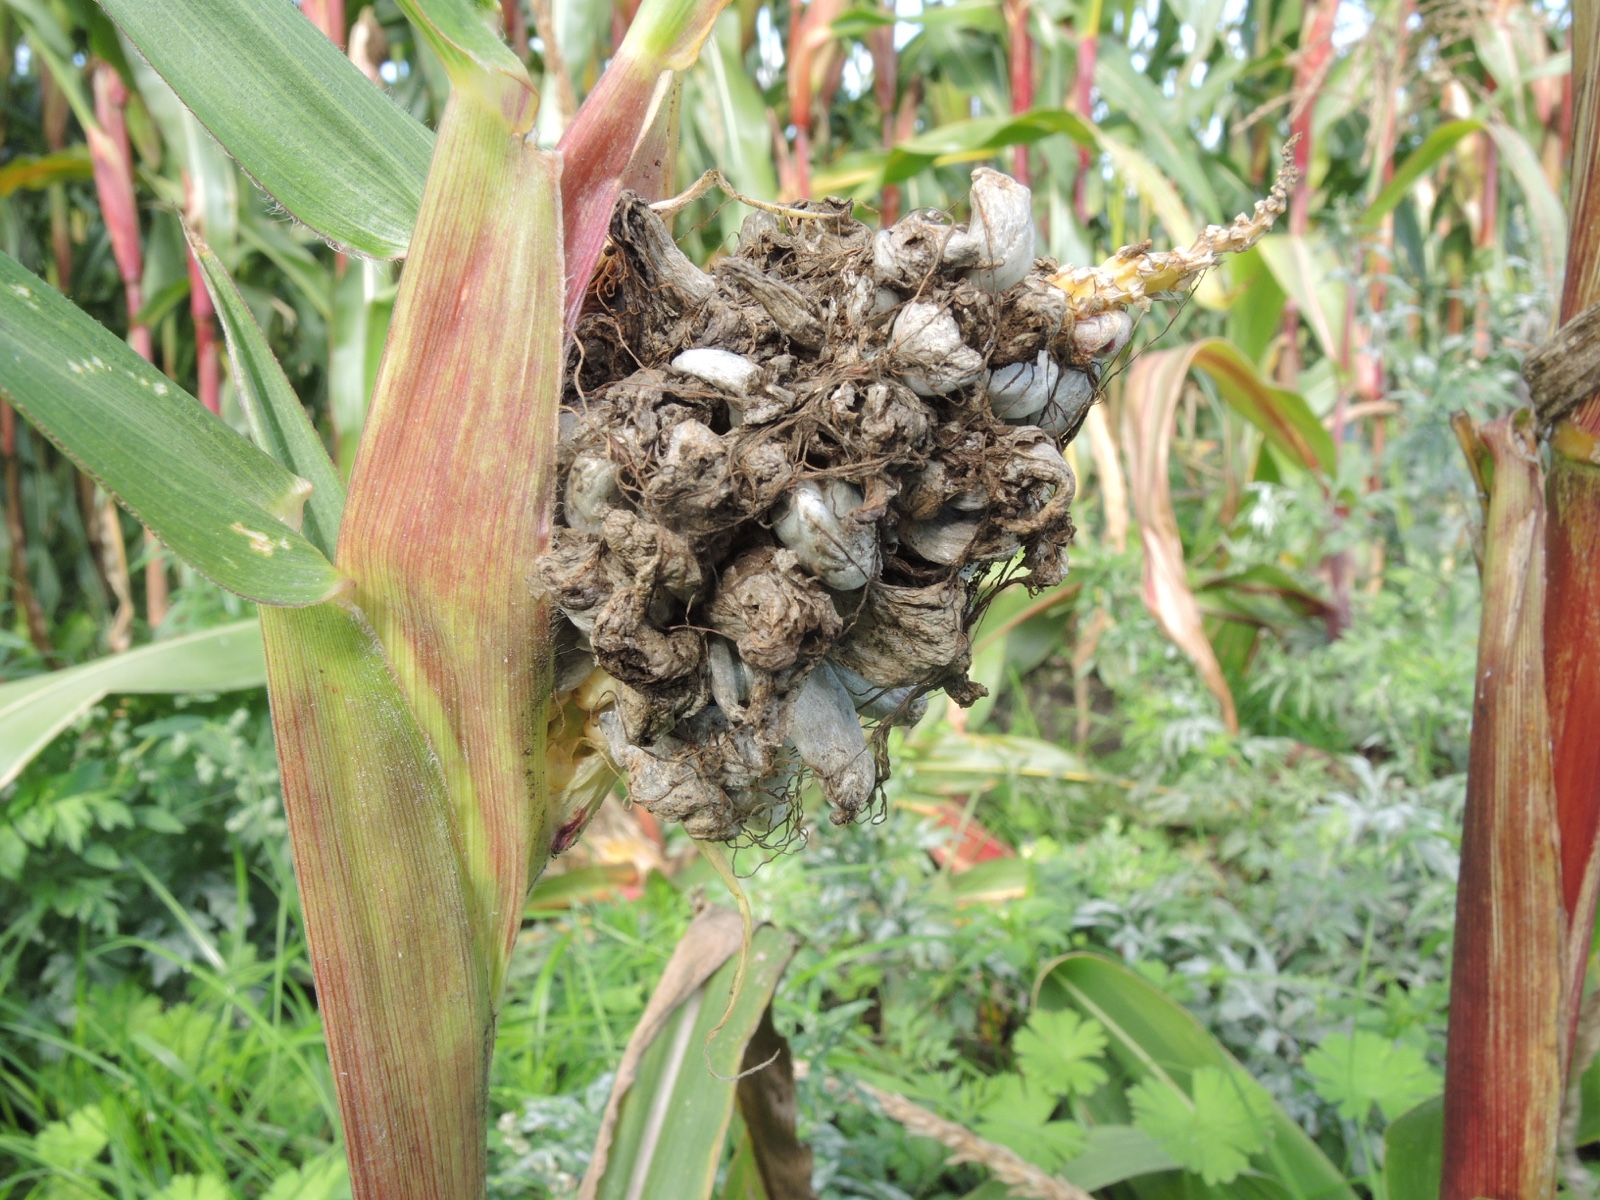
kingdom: Fungi
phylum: Basidiomycota
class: Ustilaginomycetes
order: Ustilaginales
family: Ustilaginaceae
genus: Mycosarcoma
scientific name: Mycosarcoma maydis
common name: majs-brand
